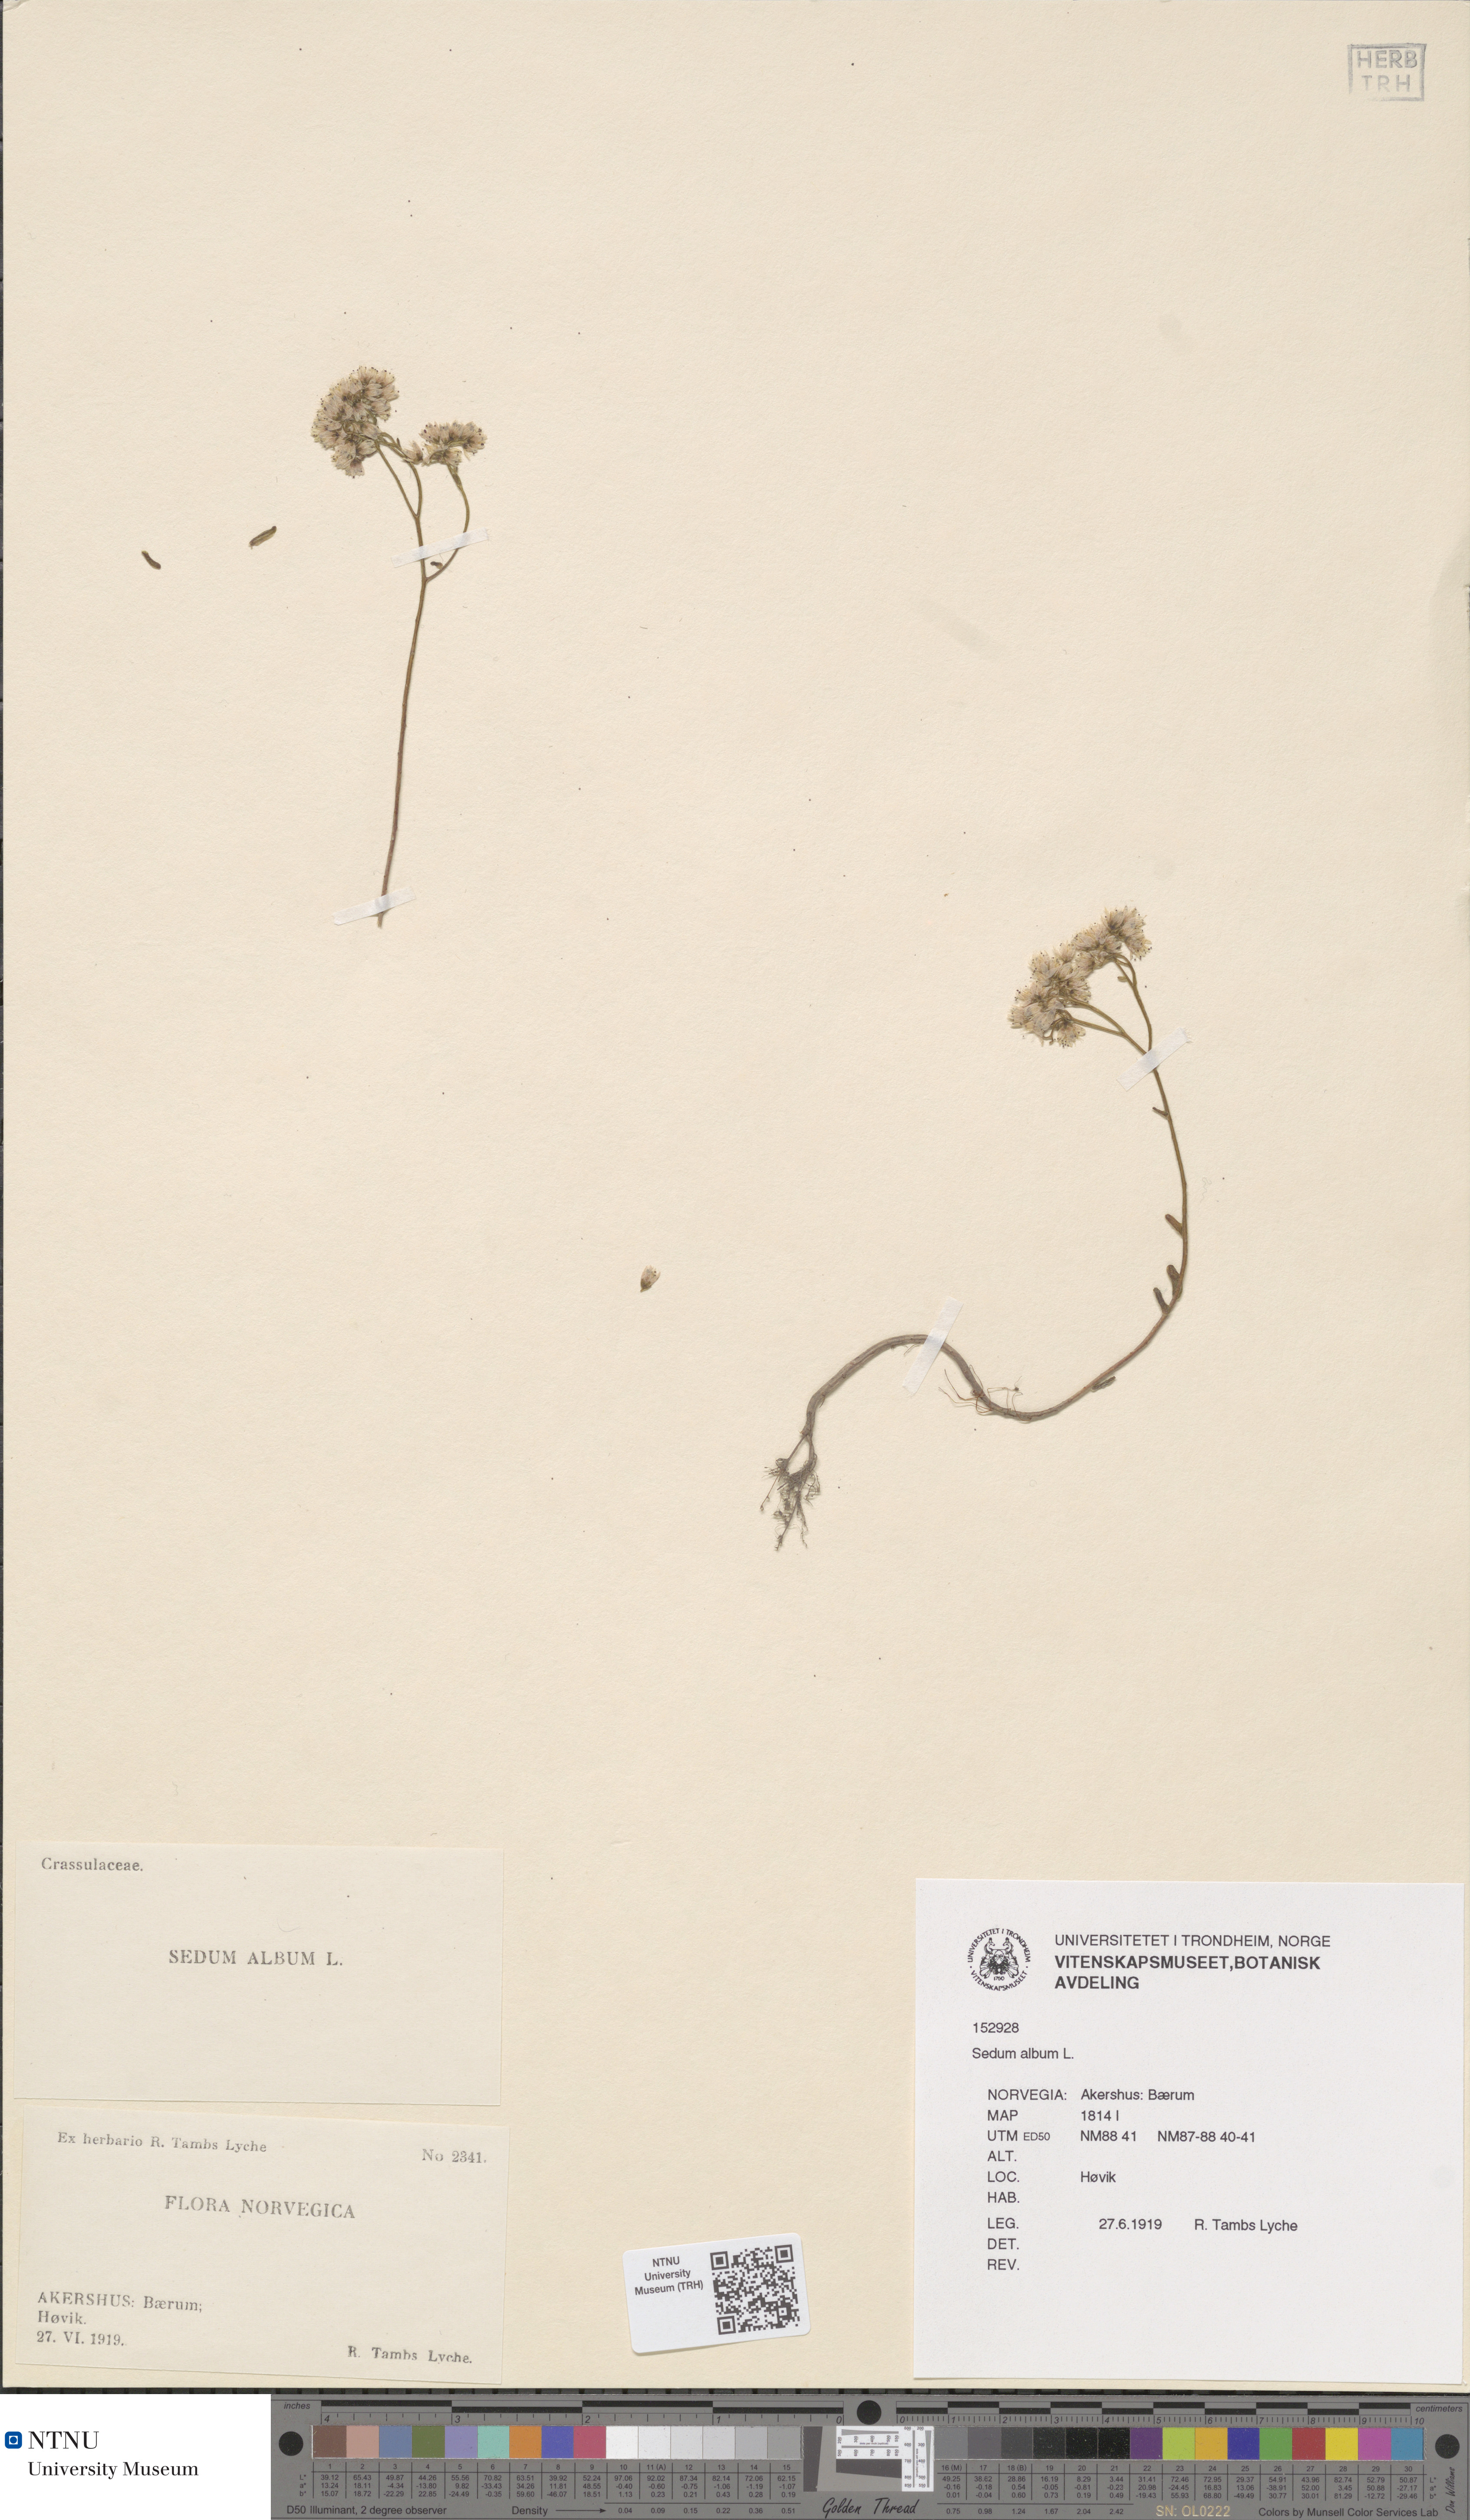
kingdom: Plantae
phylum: Tracheophyta
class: Magnoliopsida
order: Saxifragales
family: Crassulaceae
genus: Sedum
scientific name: Sedum album
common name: White stonecrop
